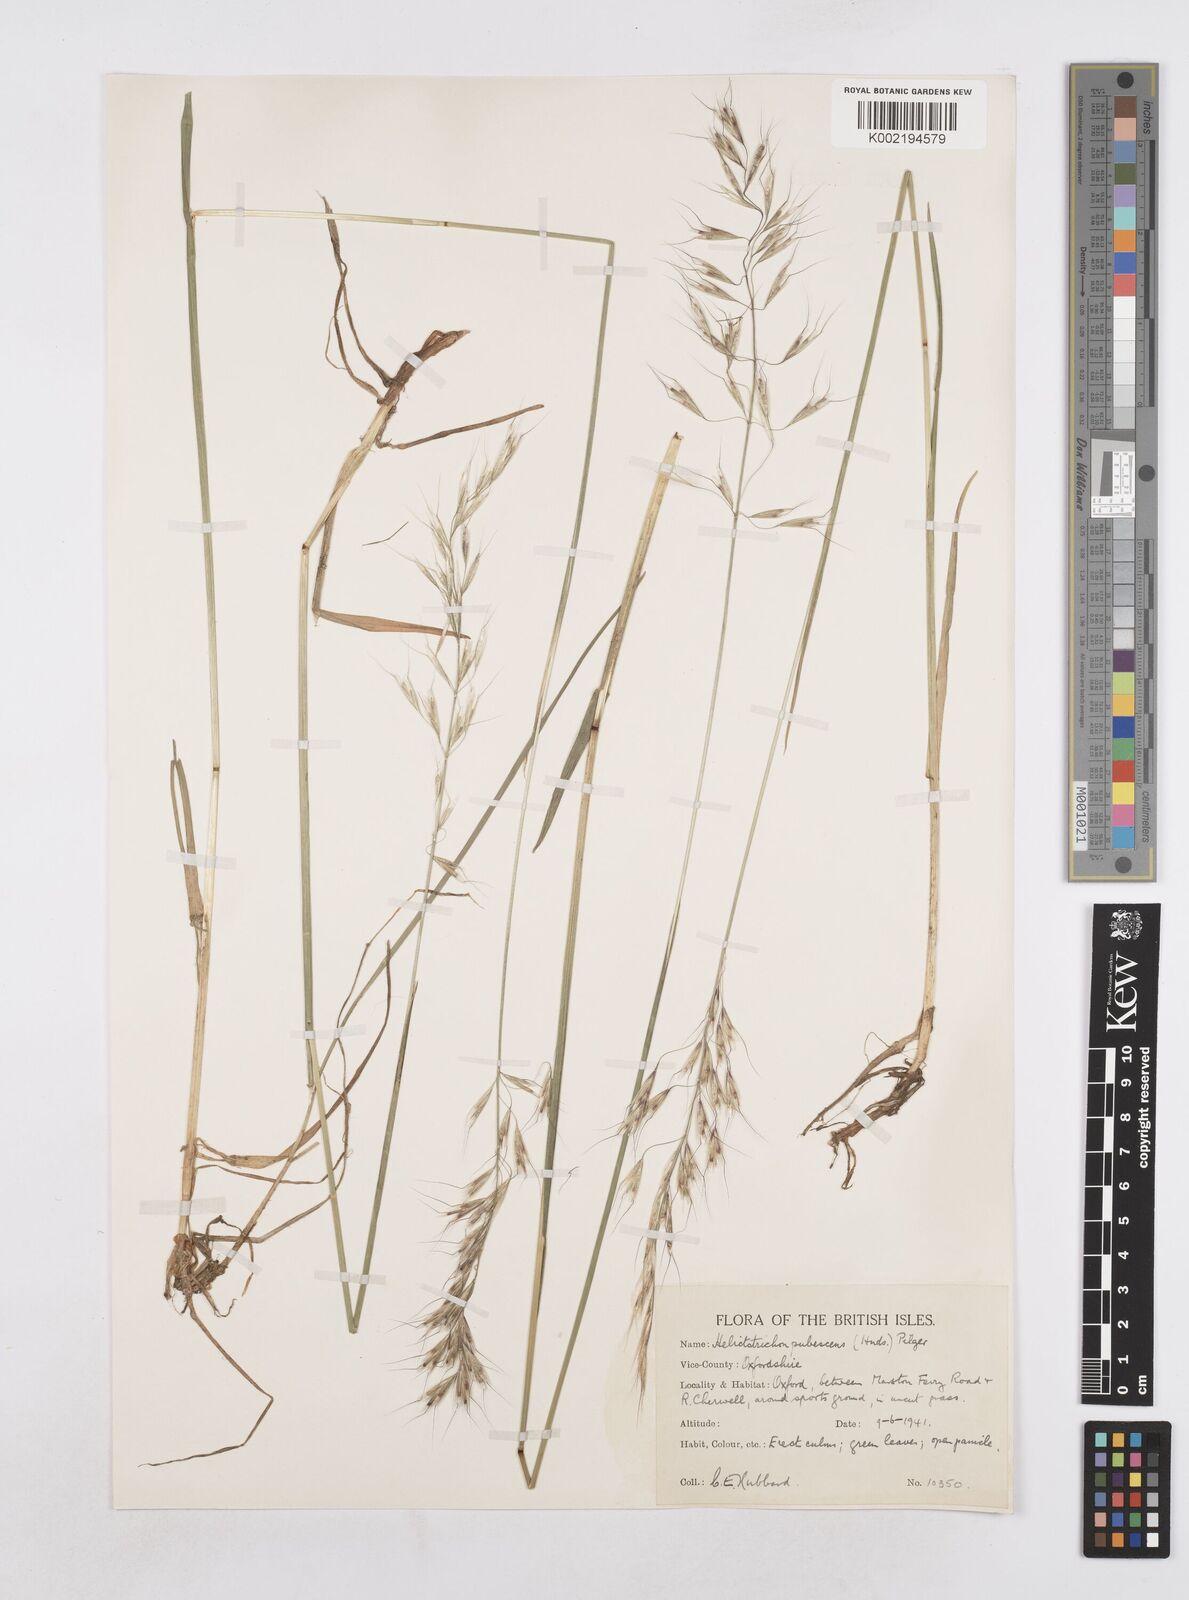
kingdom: Plantae
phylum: Tracheophyta
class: Liliopsida
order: Poales
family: Poaceae
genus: Avenula
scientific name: Avenula pubescens
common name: Downy alpine oatgrass
